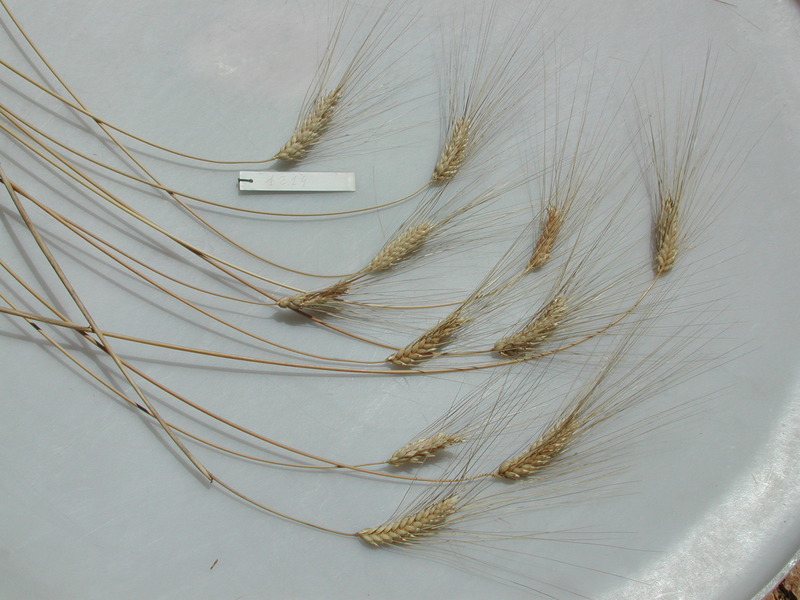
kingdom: Plantae
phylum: Tracheophyta
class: Liliopsida
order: Poales
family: Poaceae
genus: Triticum
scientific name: Triticum turgidum
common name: Wheat
